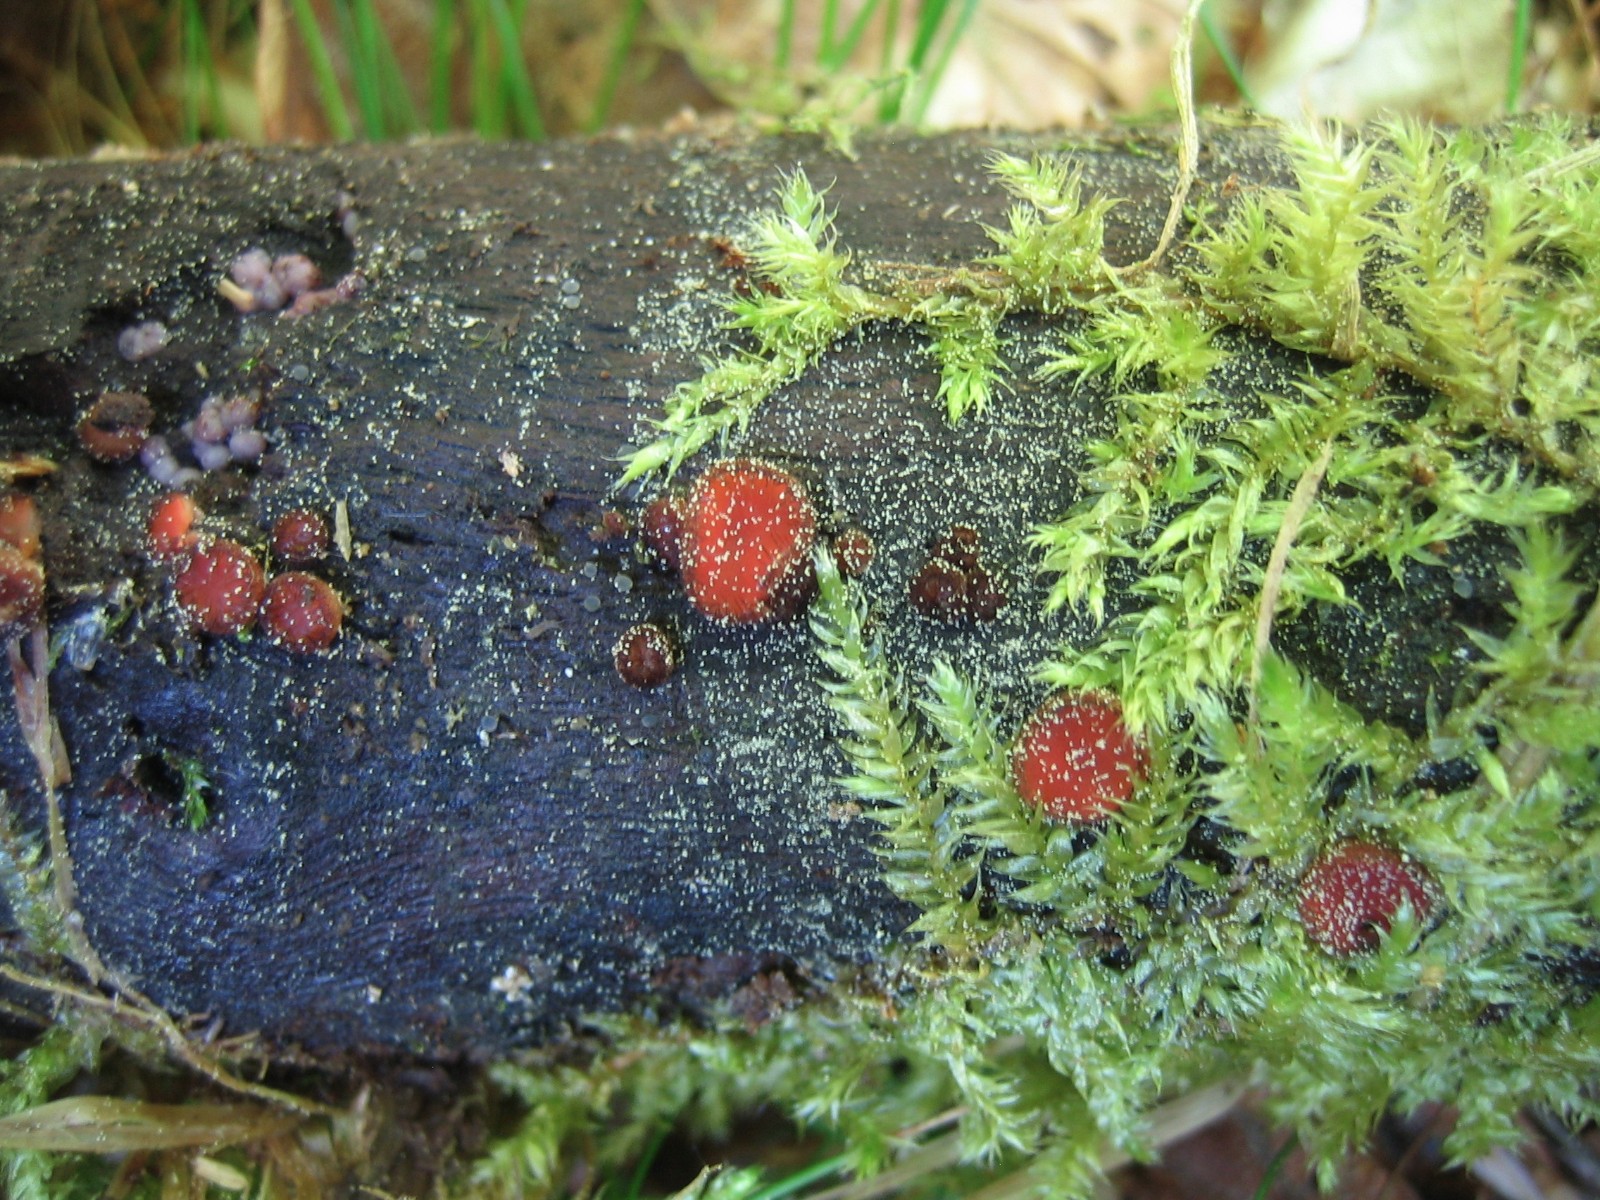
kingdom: Fungi
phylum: Ascomycota
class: Pezizomycetes
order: Pezizales
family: Pyronemataceae
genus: Scutellinia
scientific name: Scutellinia scutellata
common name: frynset skjoldbæger
